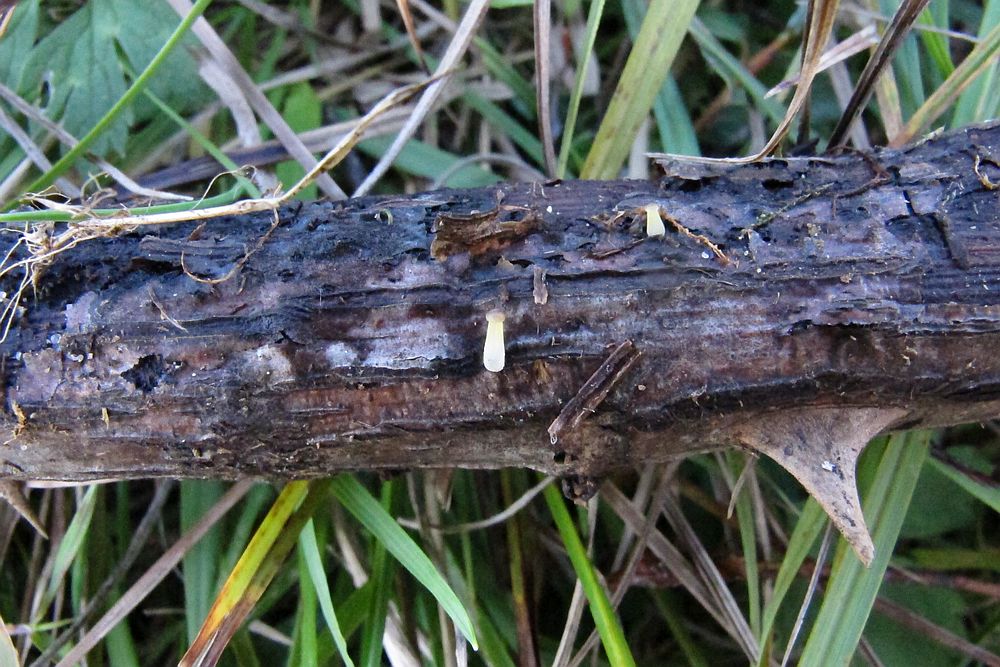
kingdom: Fungi
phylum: Basidiomycota
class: Agaricomycetes
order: Agaricales
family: Porotheleaceae
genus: Phloeomana
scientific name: Phloeomana speirea
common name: kvist-huesvamp
